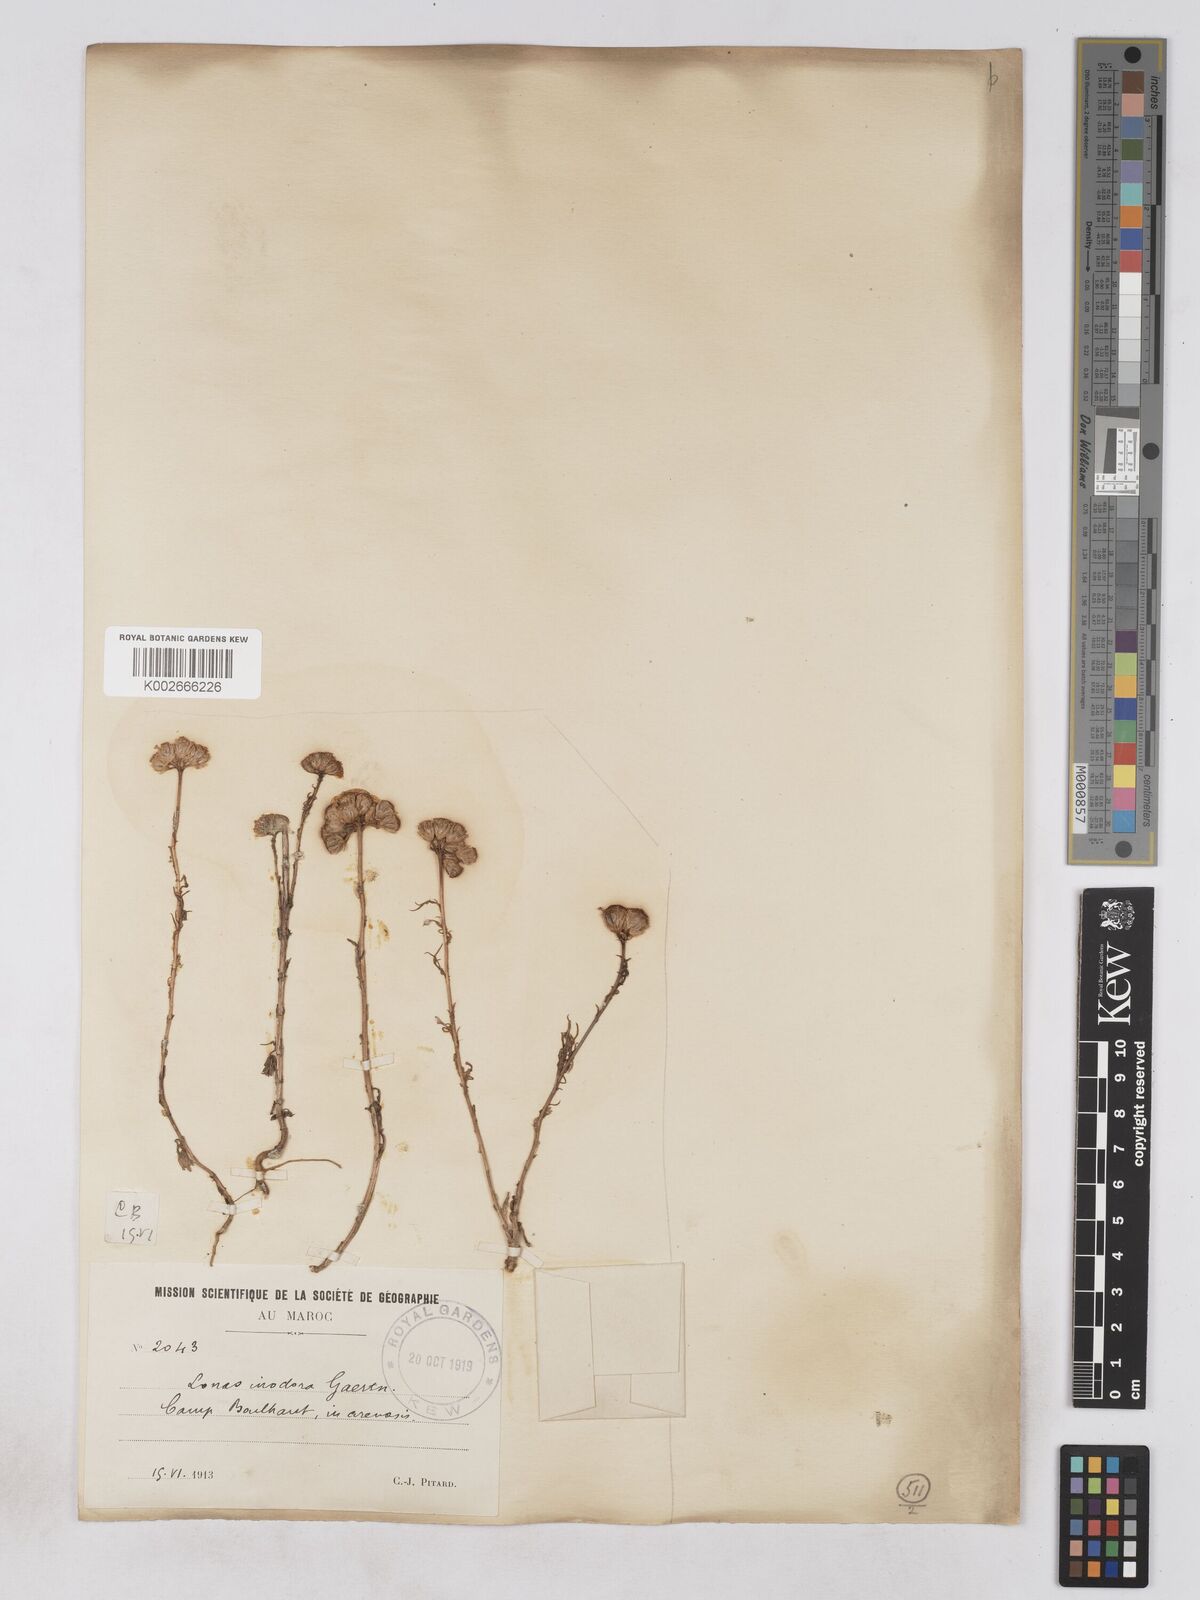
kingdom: Plantae
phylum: Tracheophyta
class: Magnoliopsida
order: Asterales
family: Asteraceae
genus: Lonas
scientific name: Lonas
